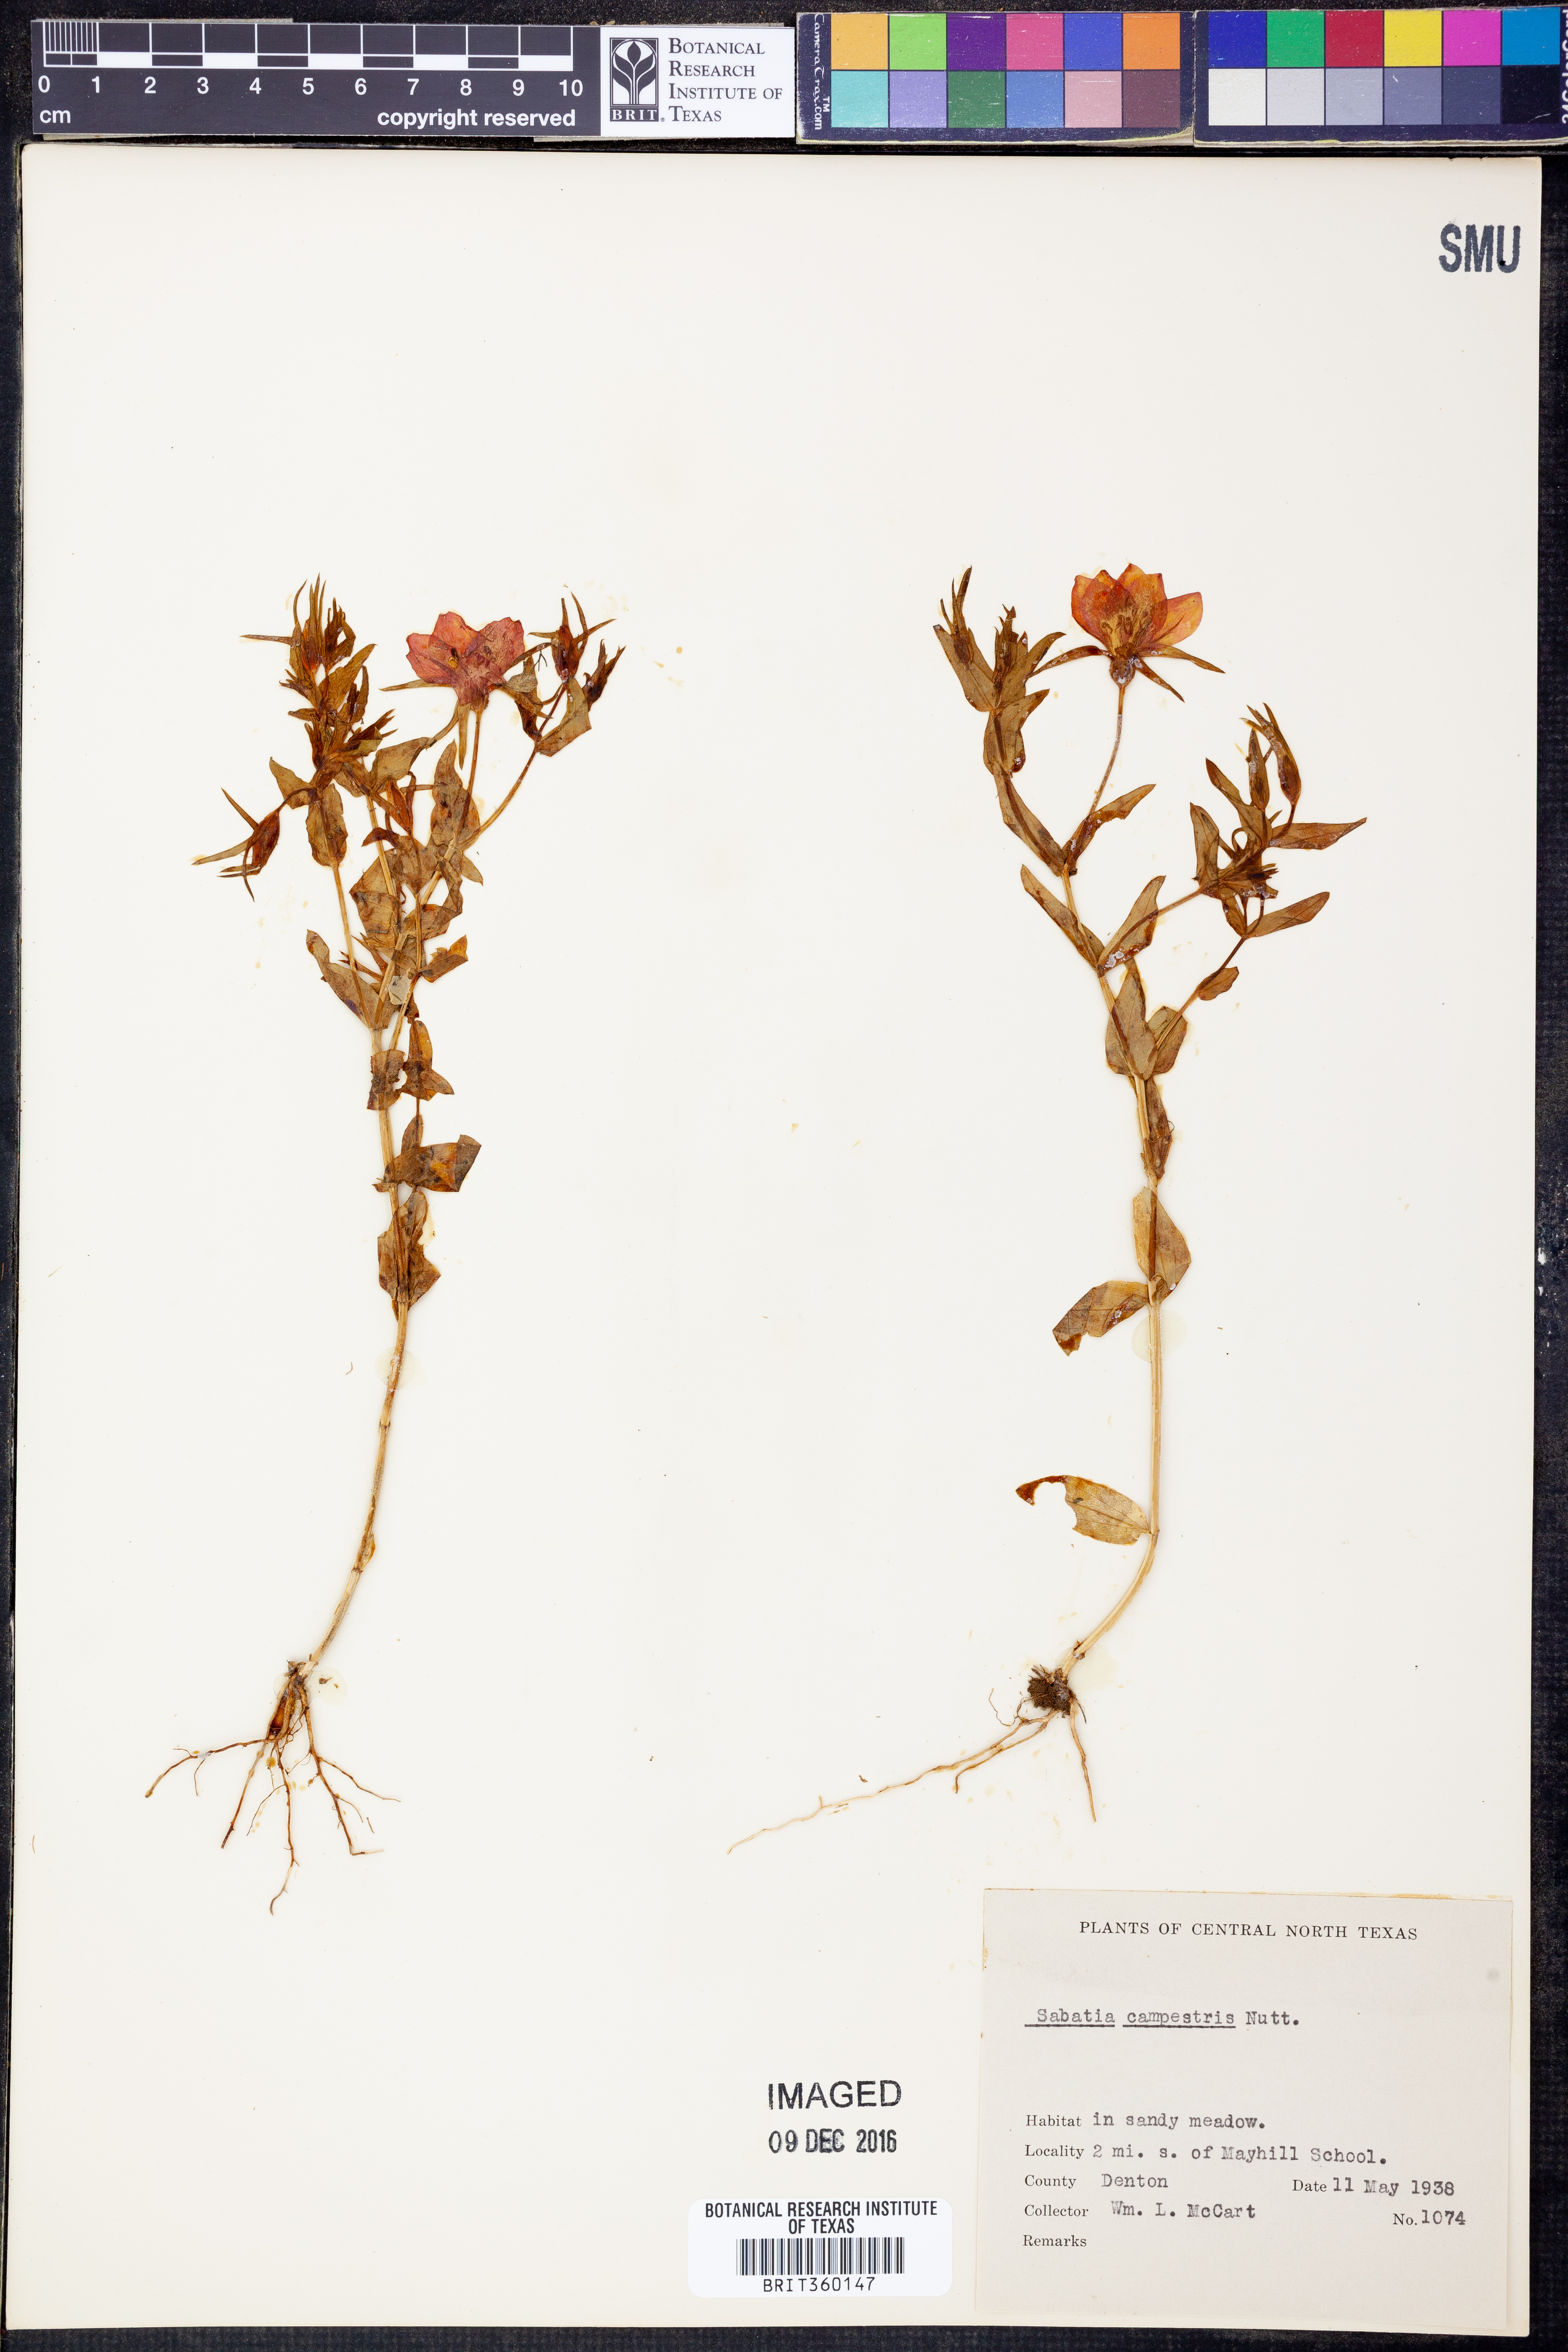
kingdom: Plantae
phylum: Tracheophyta
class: Magnoliopsida
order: Gentianales
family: Gentianaceae
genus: Sabatia
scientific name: Sabatia campestris
